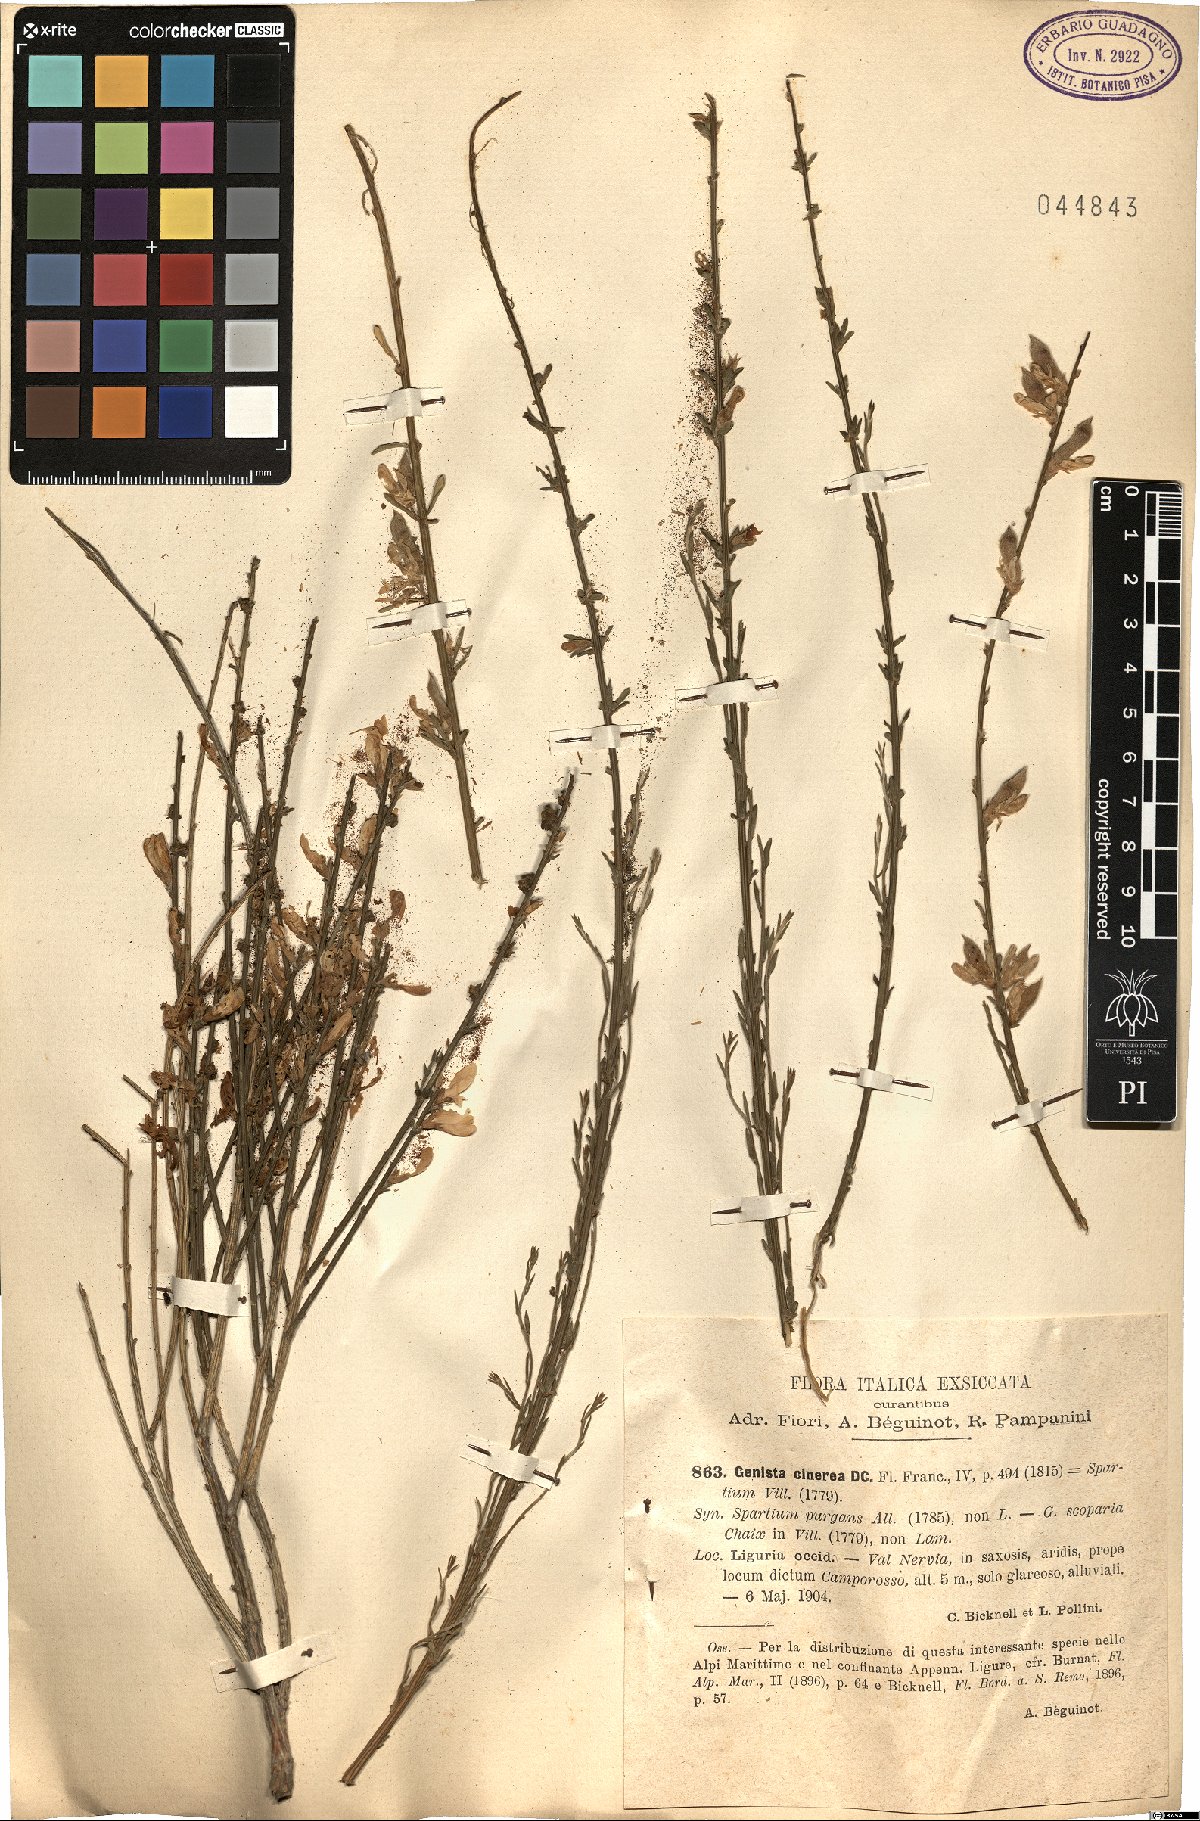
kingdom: Plantae
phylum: Tracheophyta
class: Magnoliopsida
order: Fabales
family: Fabaceae
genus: Genista
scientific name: Genista cinerea
